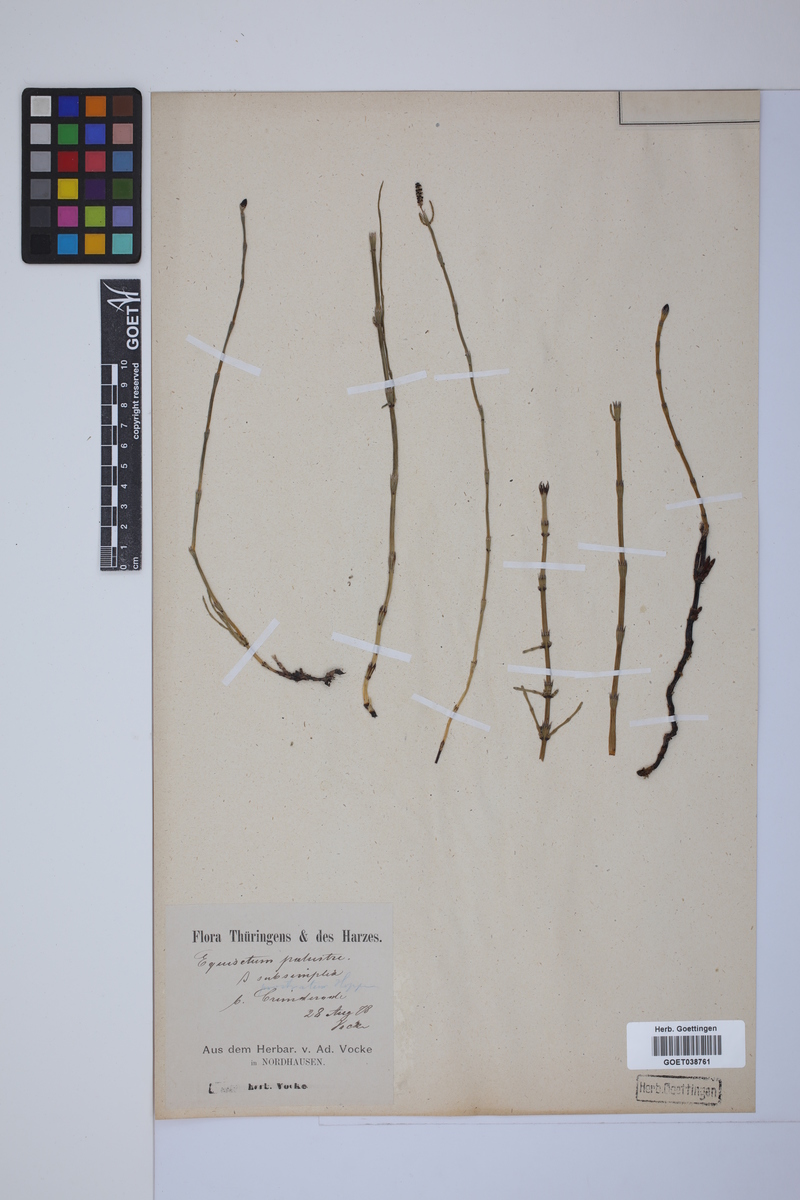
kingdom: Plantae
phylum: Tracheophyta
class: Polypodiopsida
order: Equisetales
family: Equisetaceae
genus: Equisetum
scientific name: Equisetum palustre
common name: Marsh horsetail
